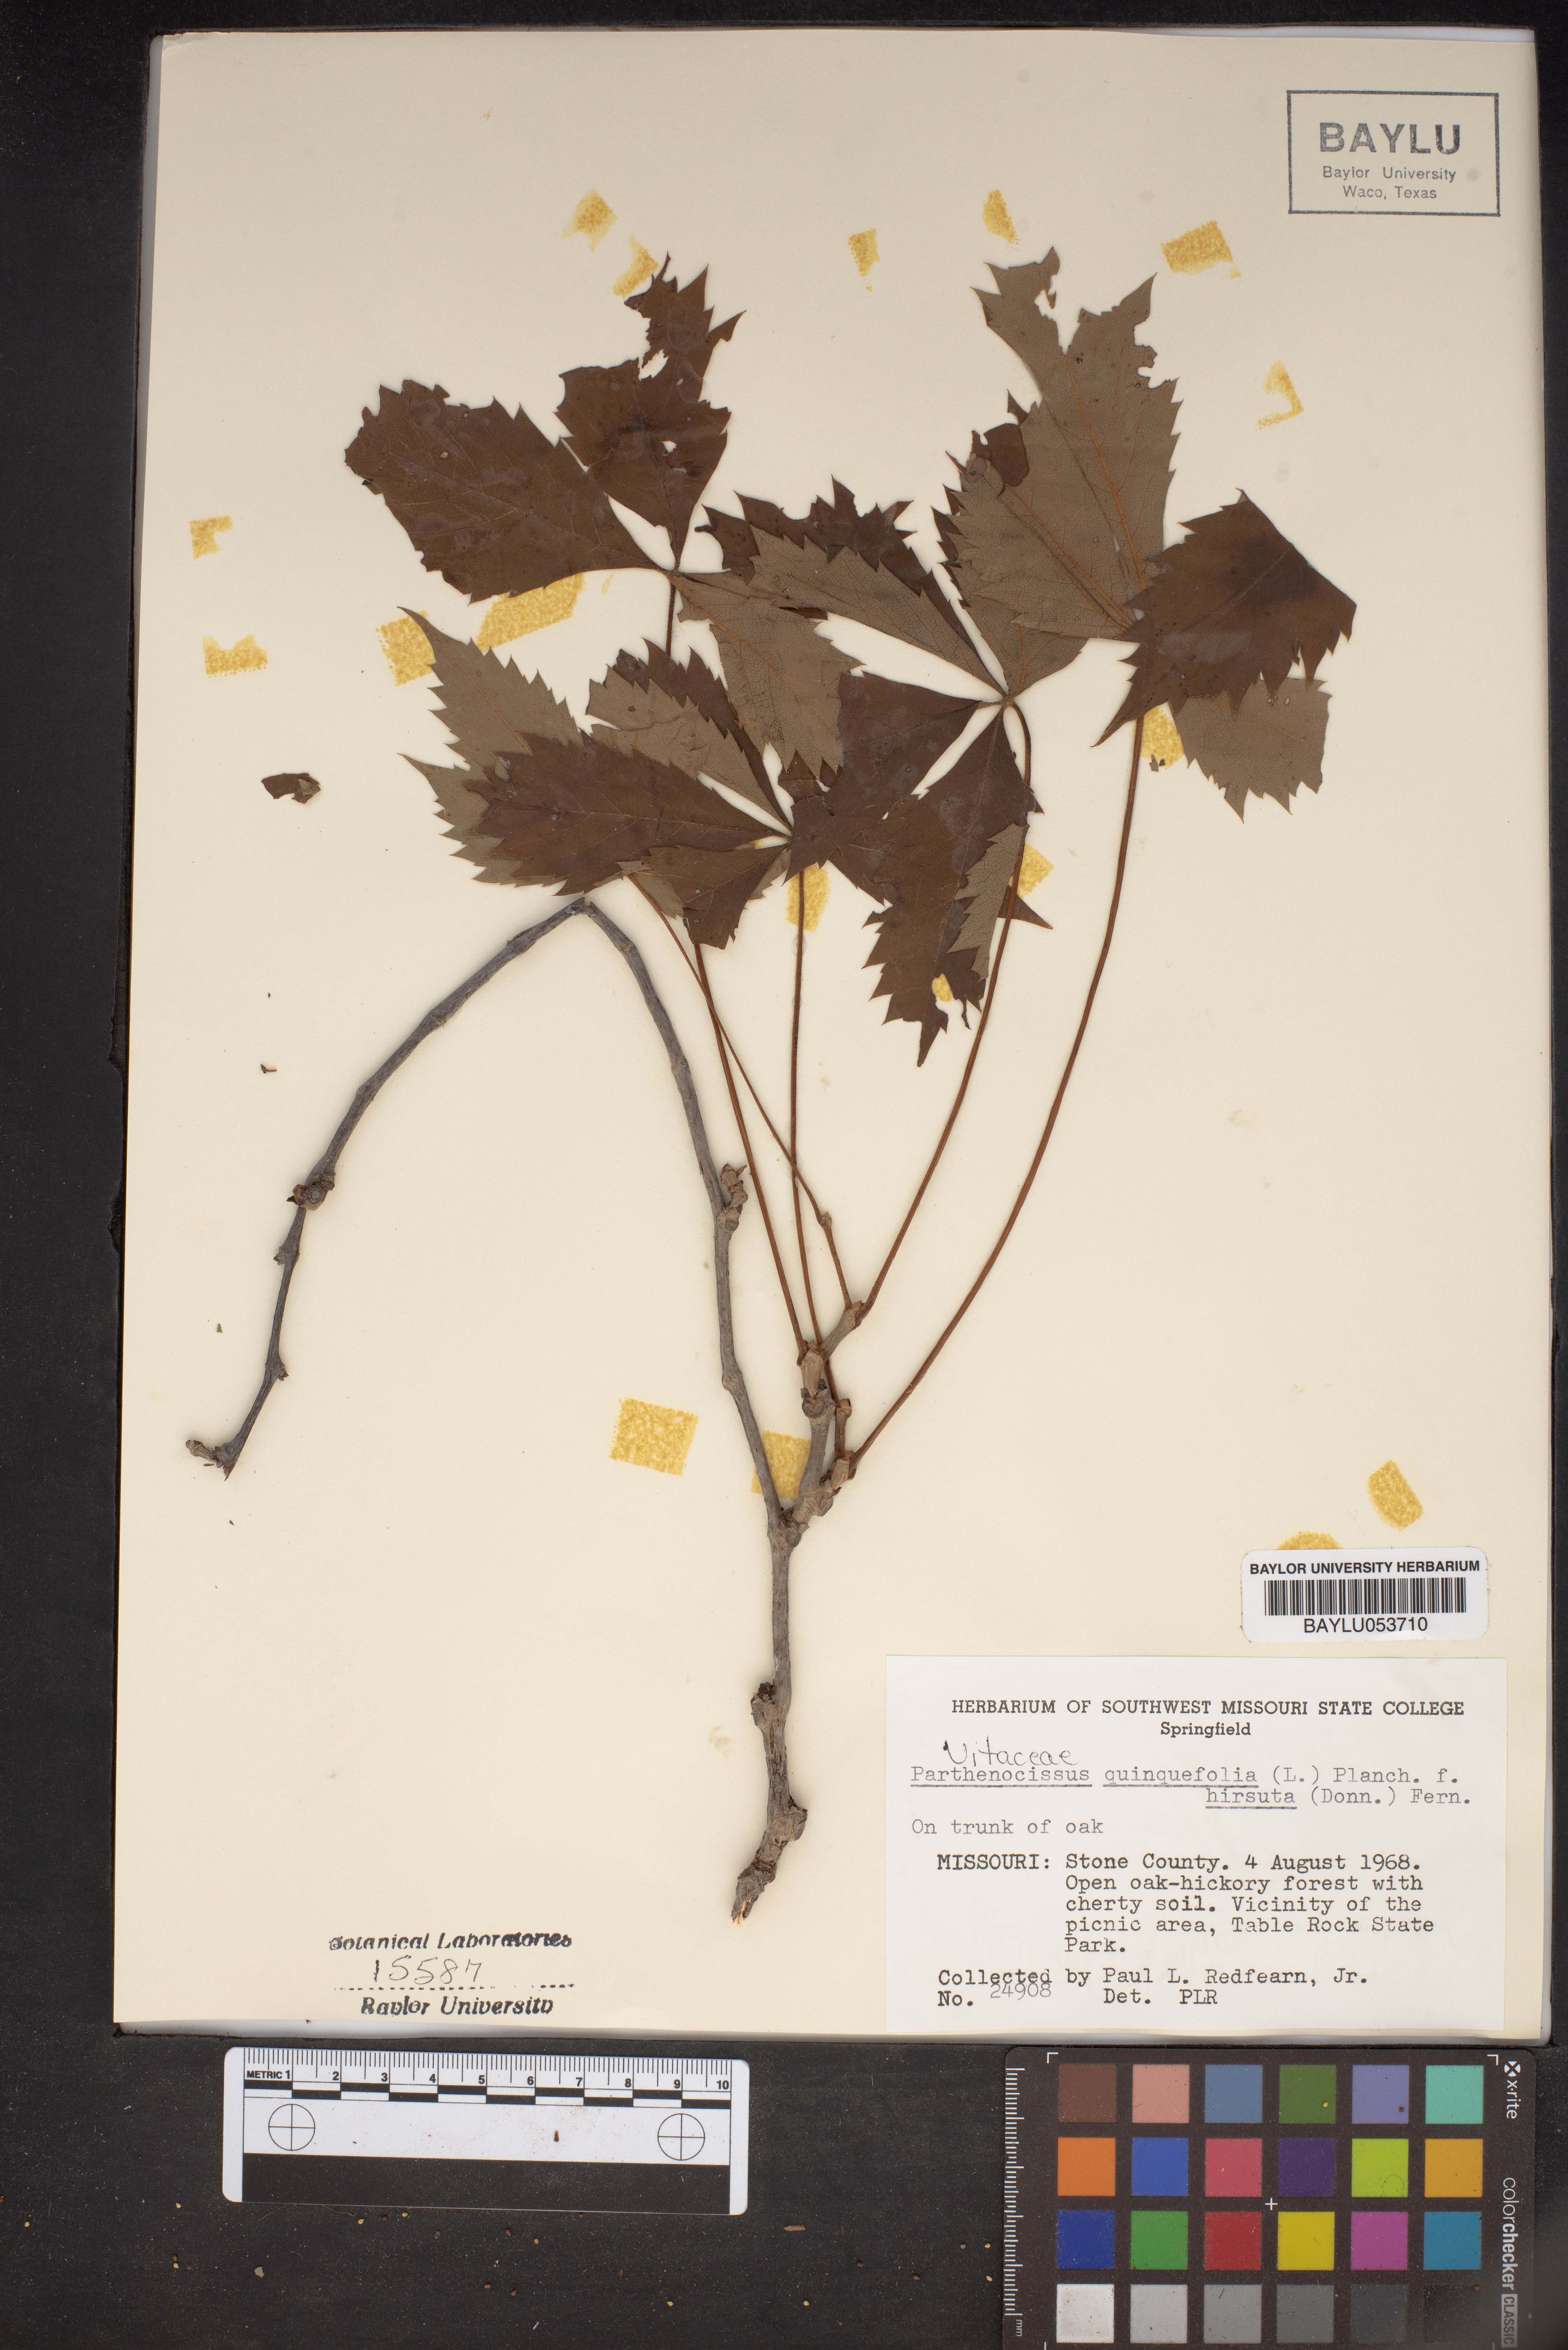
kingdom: Plantae
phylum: Tracheophyta
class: Magnoliopsida
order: Vitales
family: Vitaceae
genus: Parthenocissus
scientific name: Parthenocissus quinquefolia
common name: Virginia-creeper
